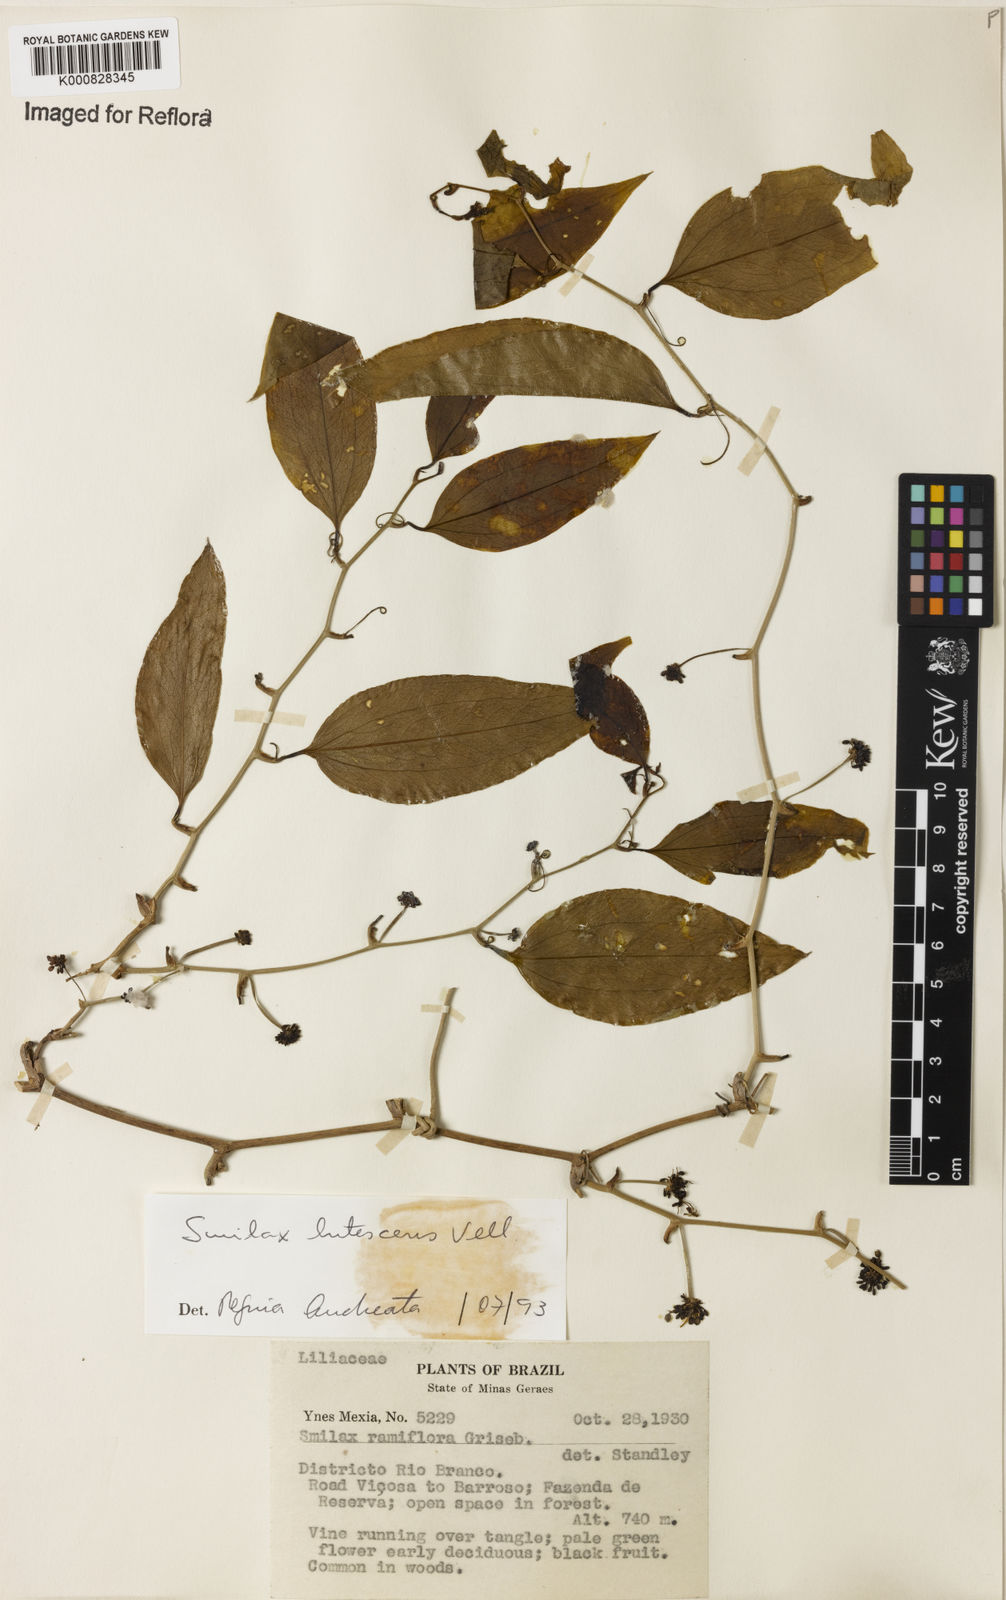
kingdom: Plantae
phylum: Tracheophyta
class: Liliopsida
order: Liliales
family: Smilacaceae
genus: Smilax
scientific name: Smilax lutescens
